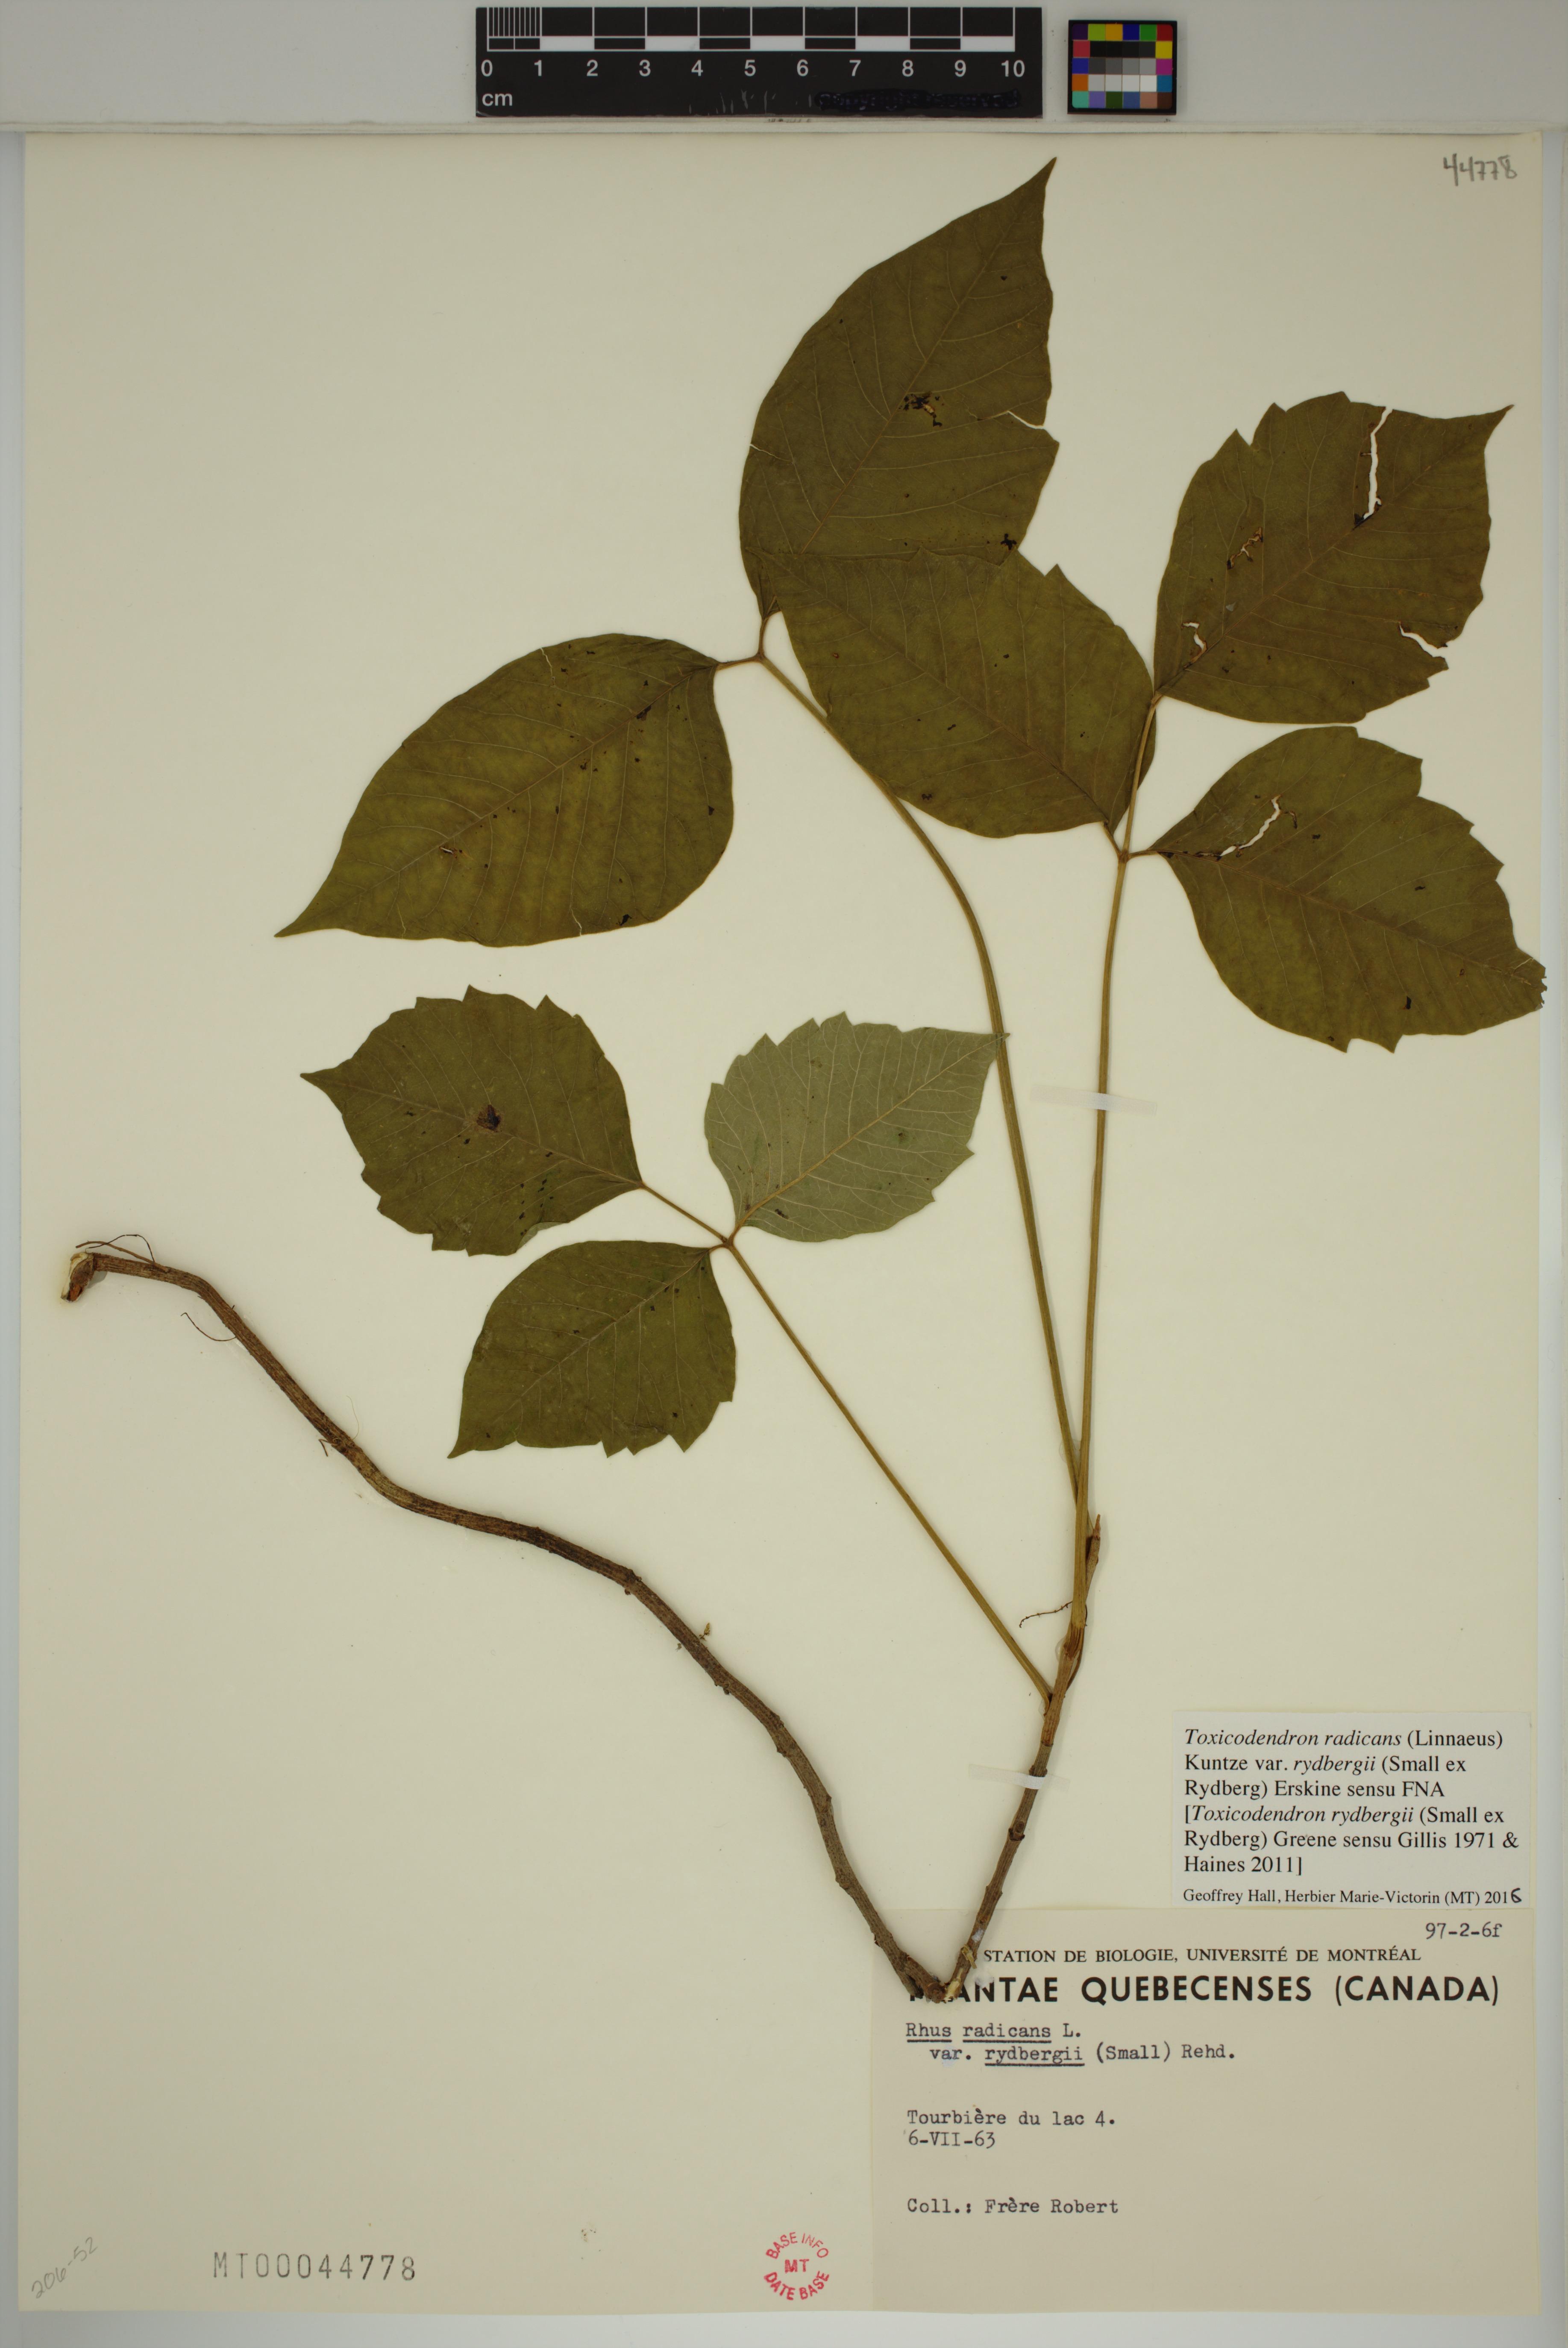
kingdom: Plantae
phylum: Tracheophyta
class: Magnoliopsida
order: Sapindales
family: Anacardiaceae
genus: Toxicodendron
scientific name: Toxicodendron rydbergii
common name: Rydberg's poison-ivy
